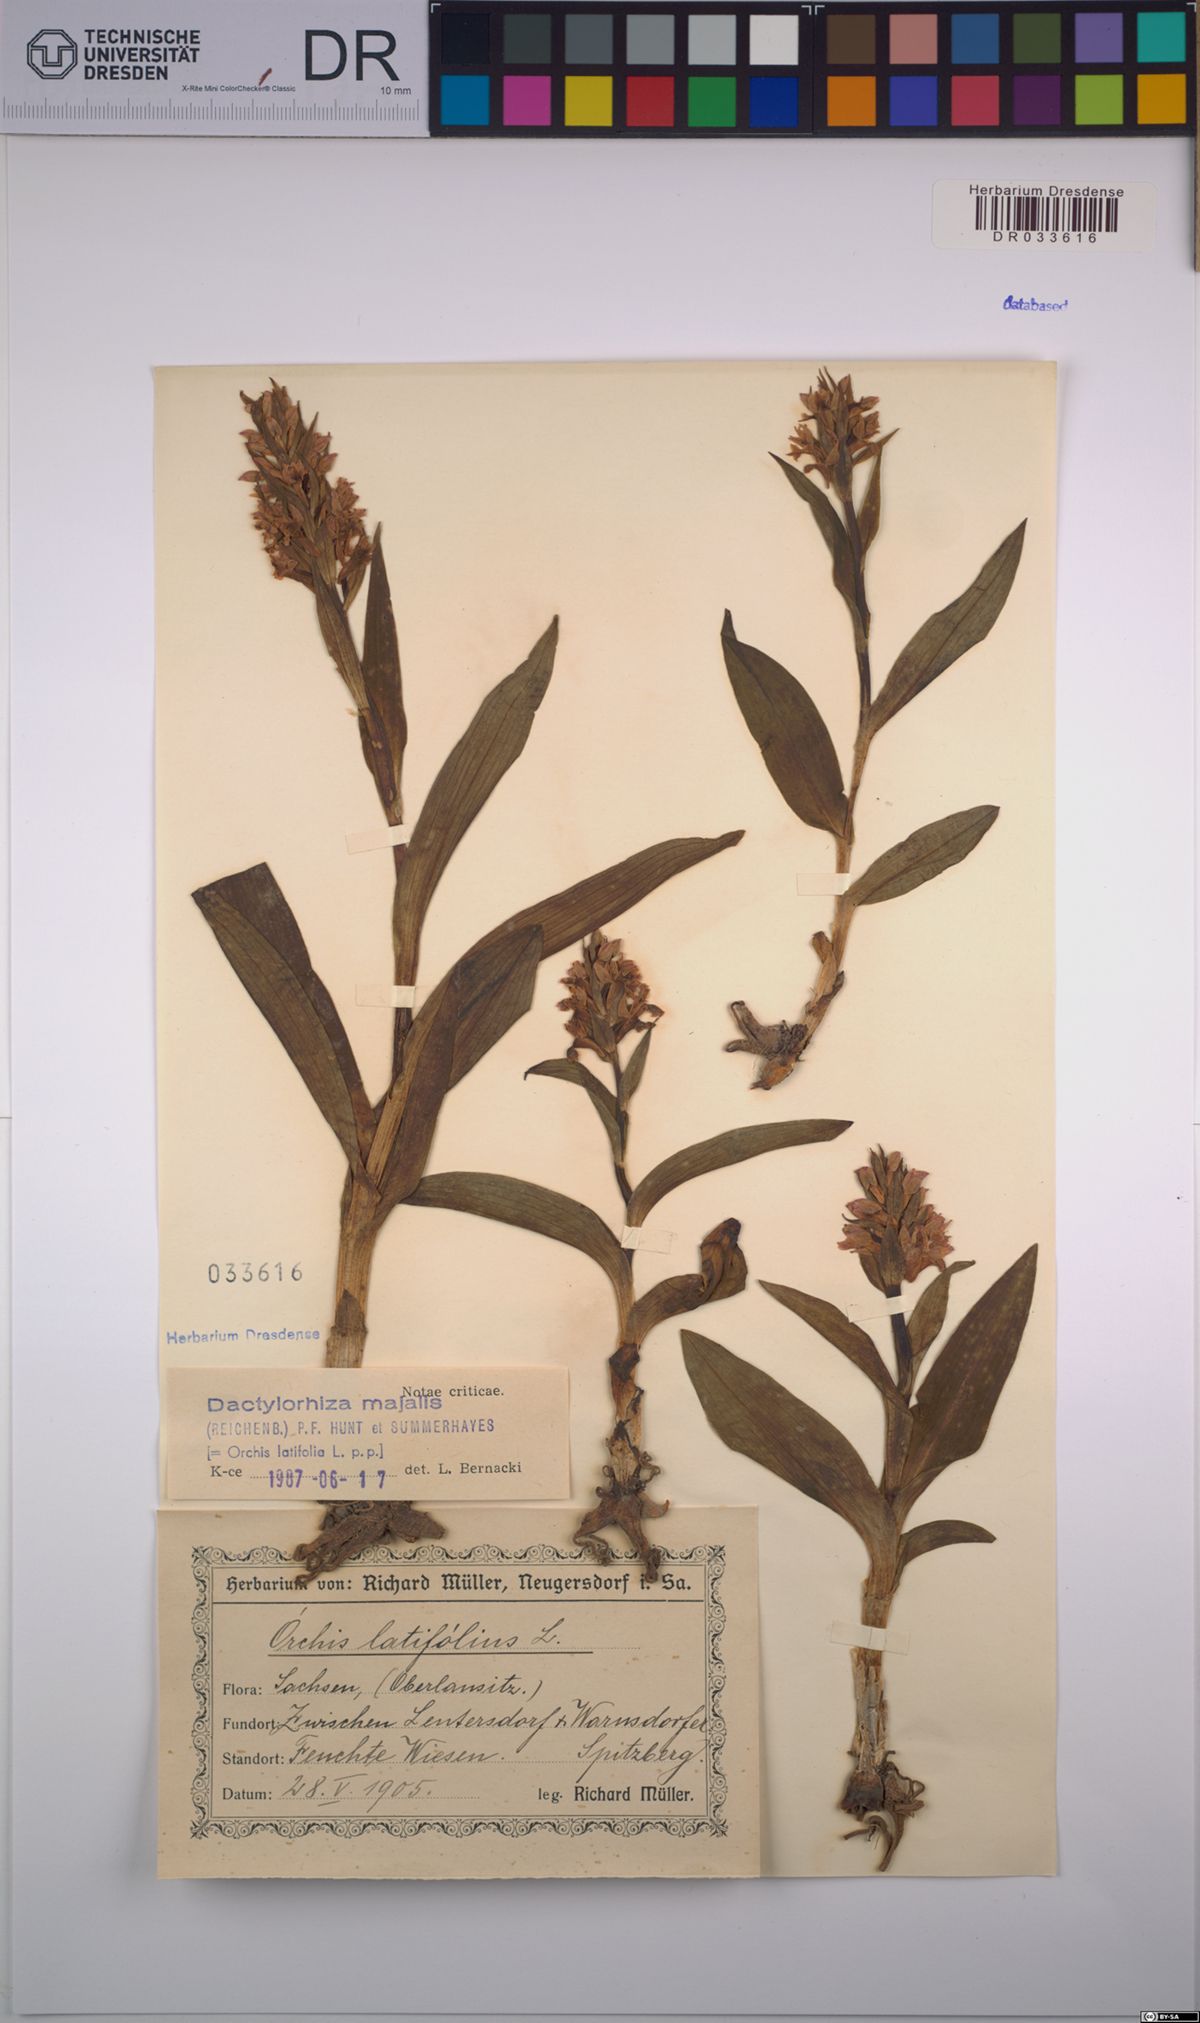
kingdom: Plantae
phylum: Tracheophyta
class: Liliopsida
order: Asparagales
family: Orchidaceae
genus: Dactylorhiza
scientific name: Dactylorhiza majalis
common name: Marsh orchid
